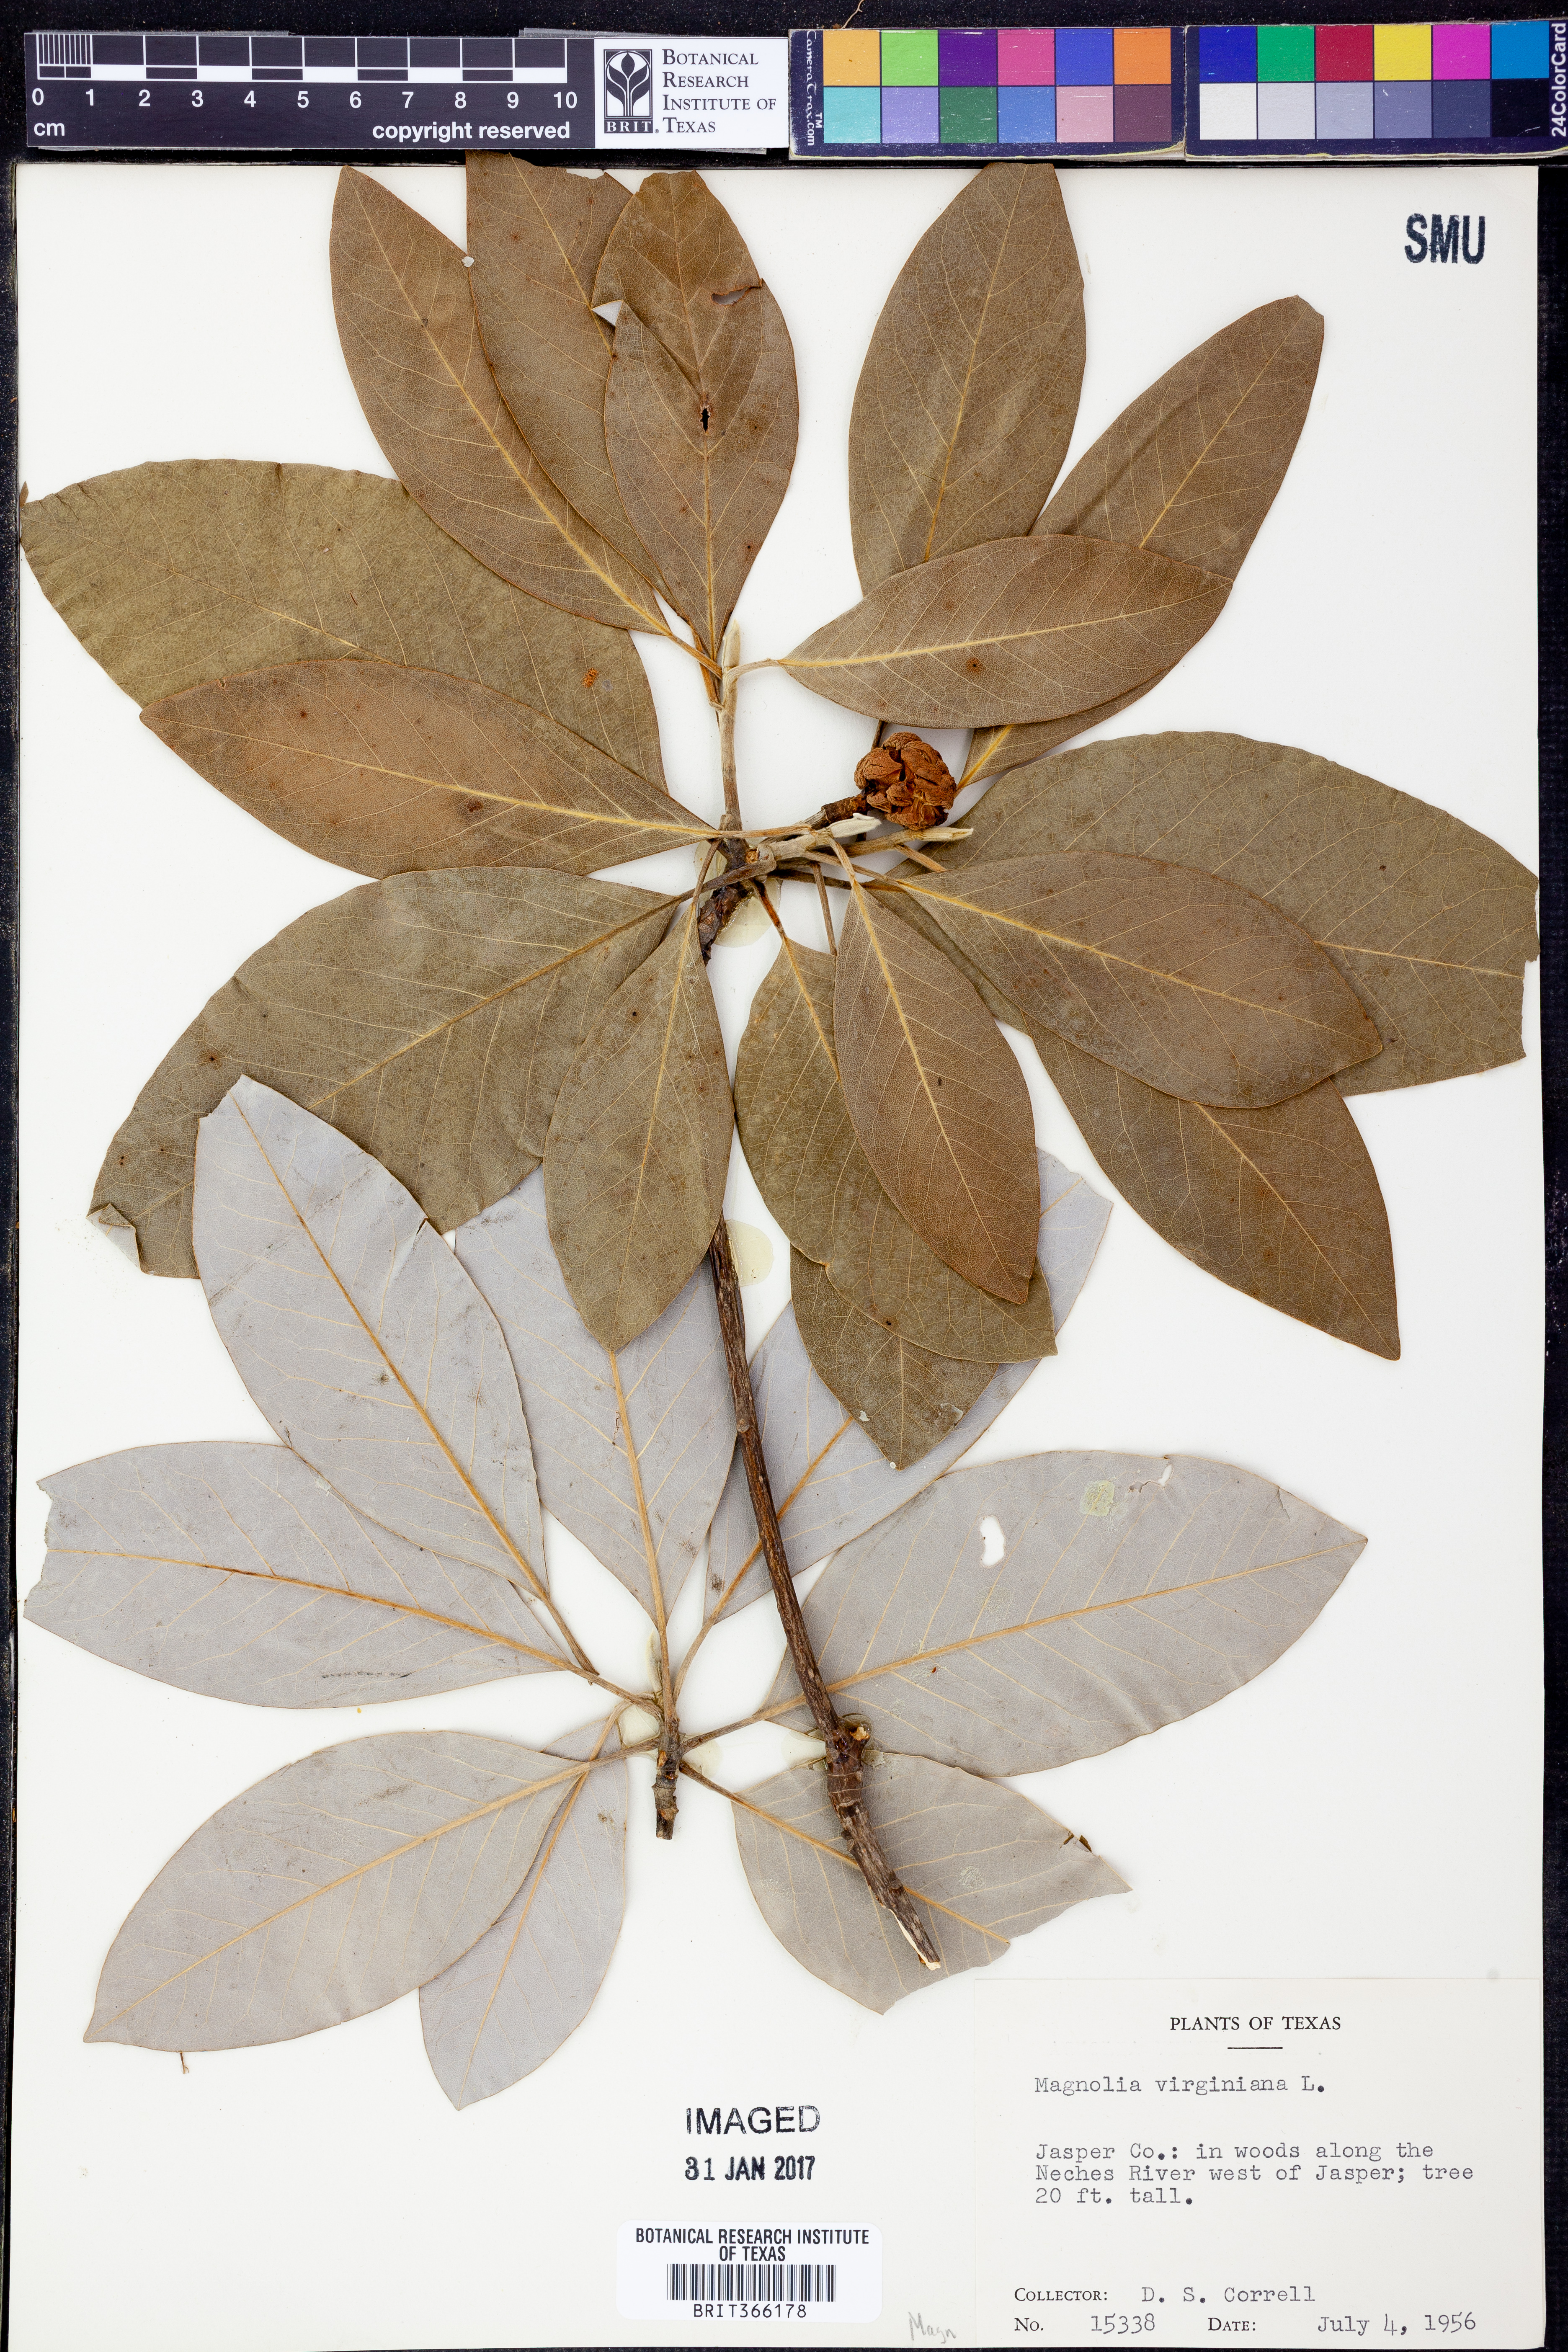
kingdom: Plantae
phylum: Tracheophyta
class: Magnoliopsida
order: Magnoliales
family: Magnoliaceae
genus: Magnolia
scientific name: Magnolia virginiana
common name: Swamp bay
